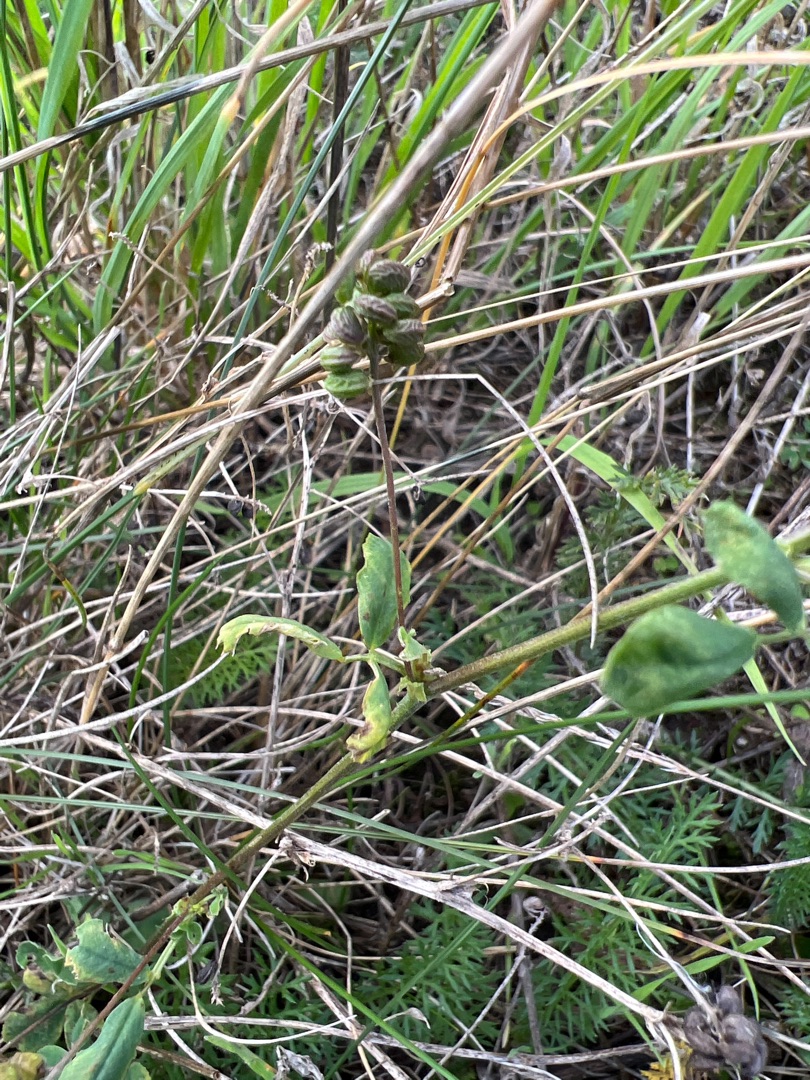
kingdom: Plantae
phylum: Tracheophyta
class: Magnoliopsida
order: Fabales
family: Fabaceae
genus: Medicago
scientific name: Medicago lupulina
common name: Humle-sneglebælg
